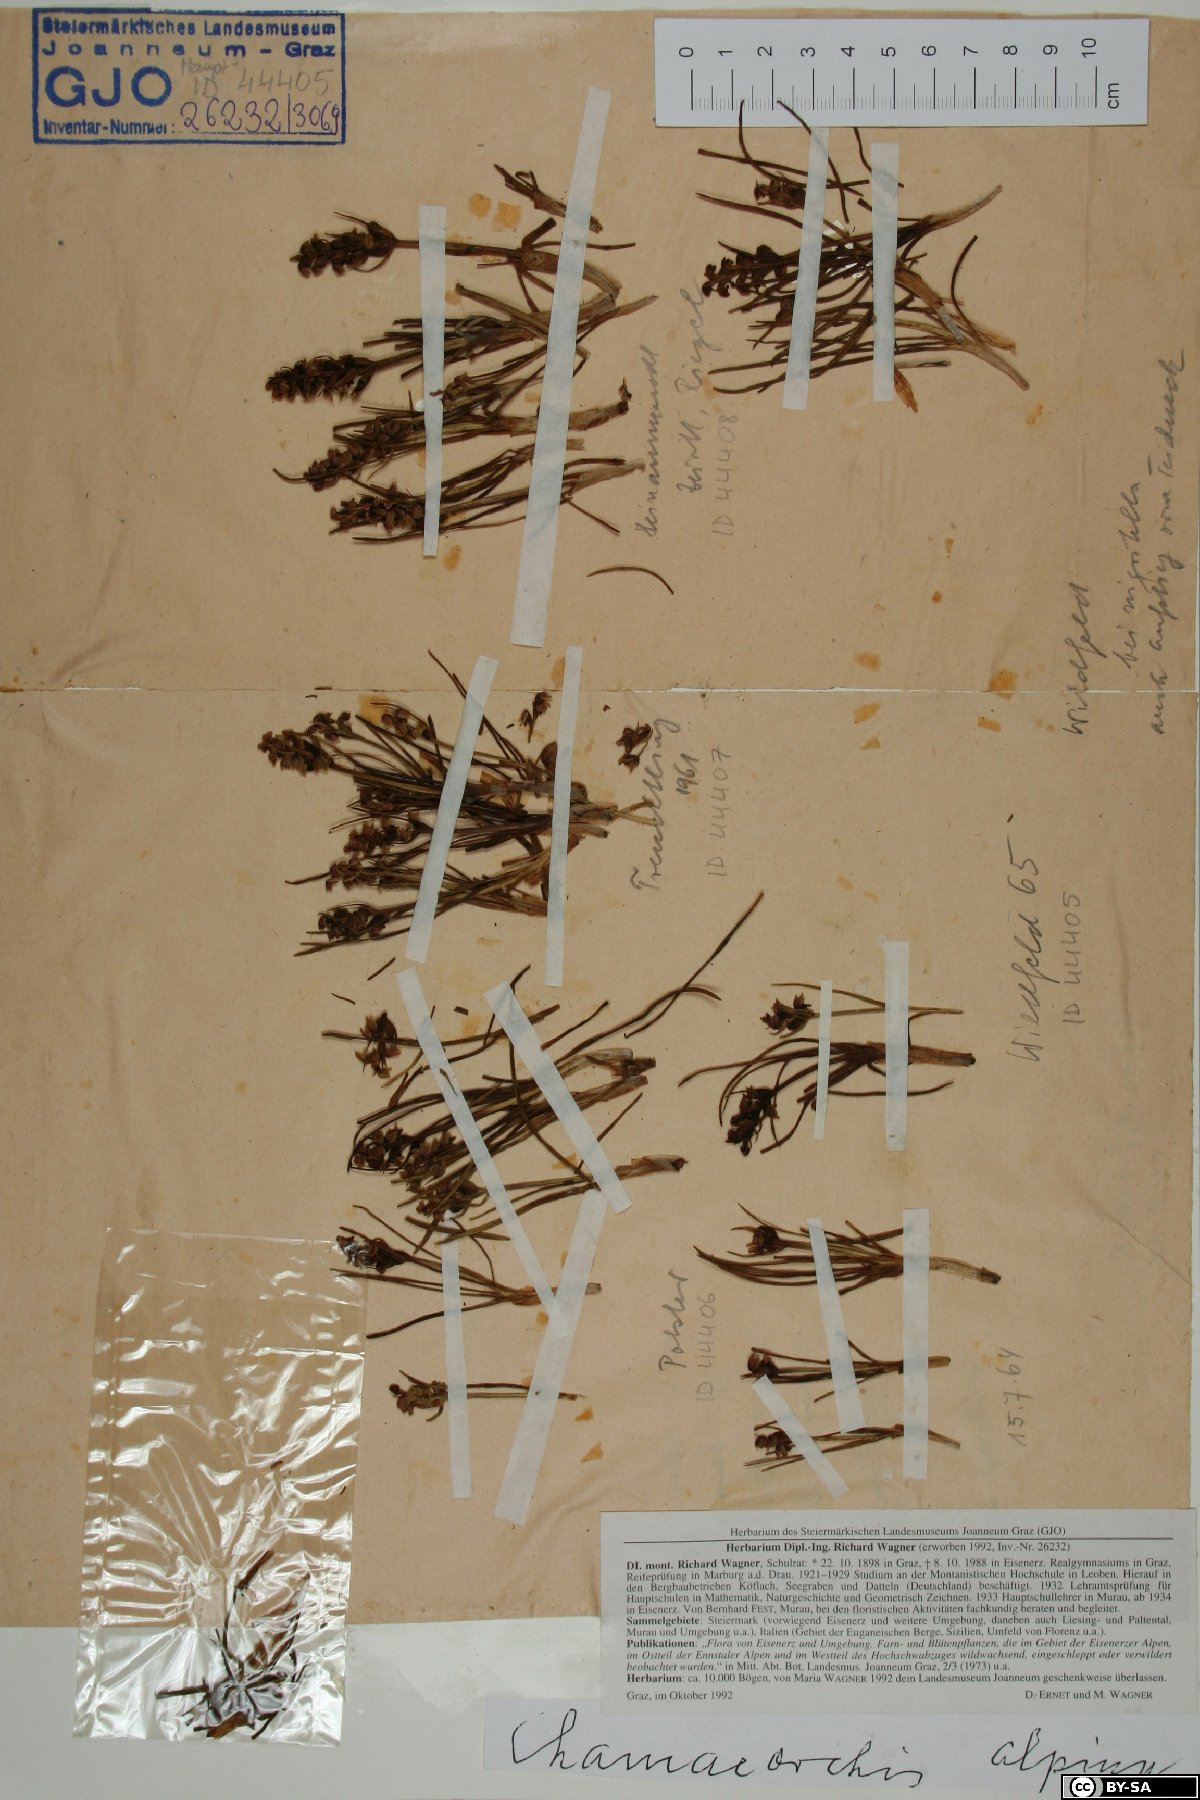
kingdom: Plantae
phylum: Tracheophyta
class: Liliopsida
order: Asparagales
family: Orchidaceae
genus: Chamorchis
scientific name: Chamorchis alpina
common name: Alpine chamorchis
